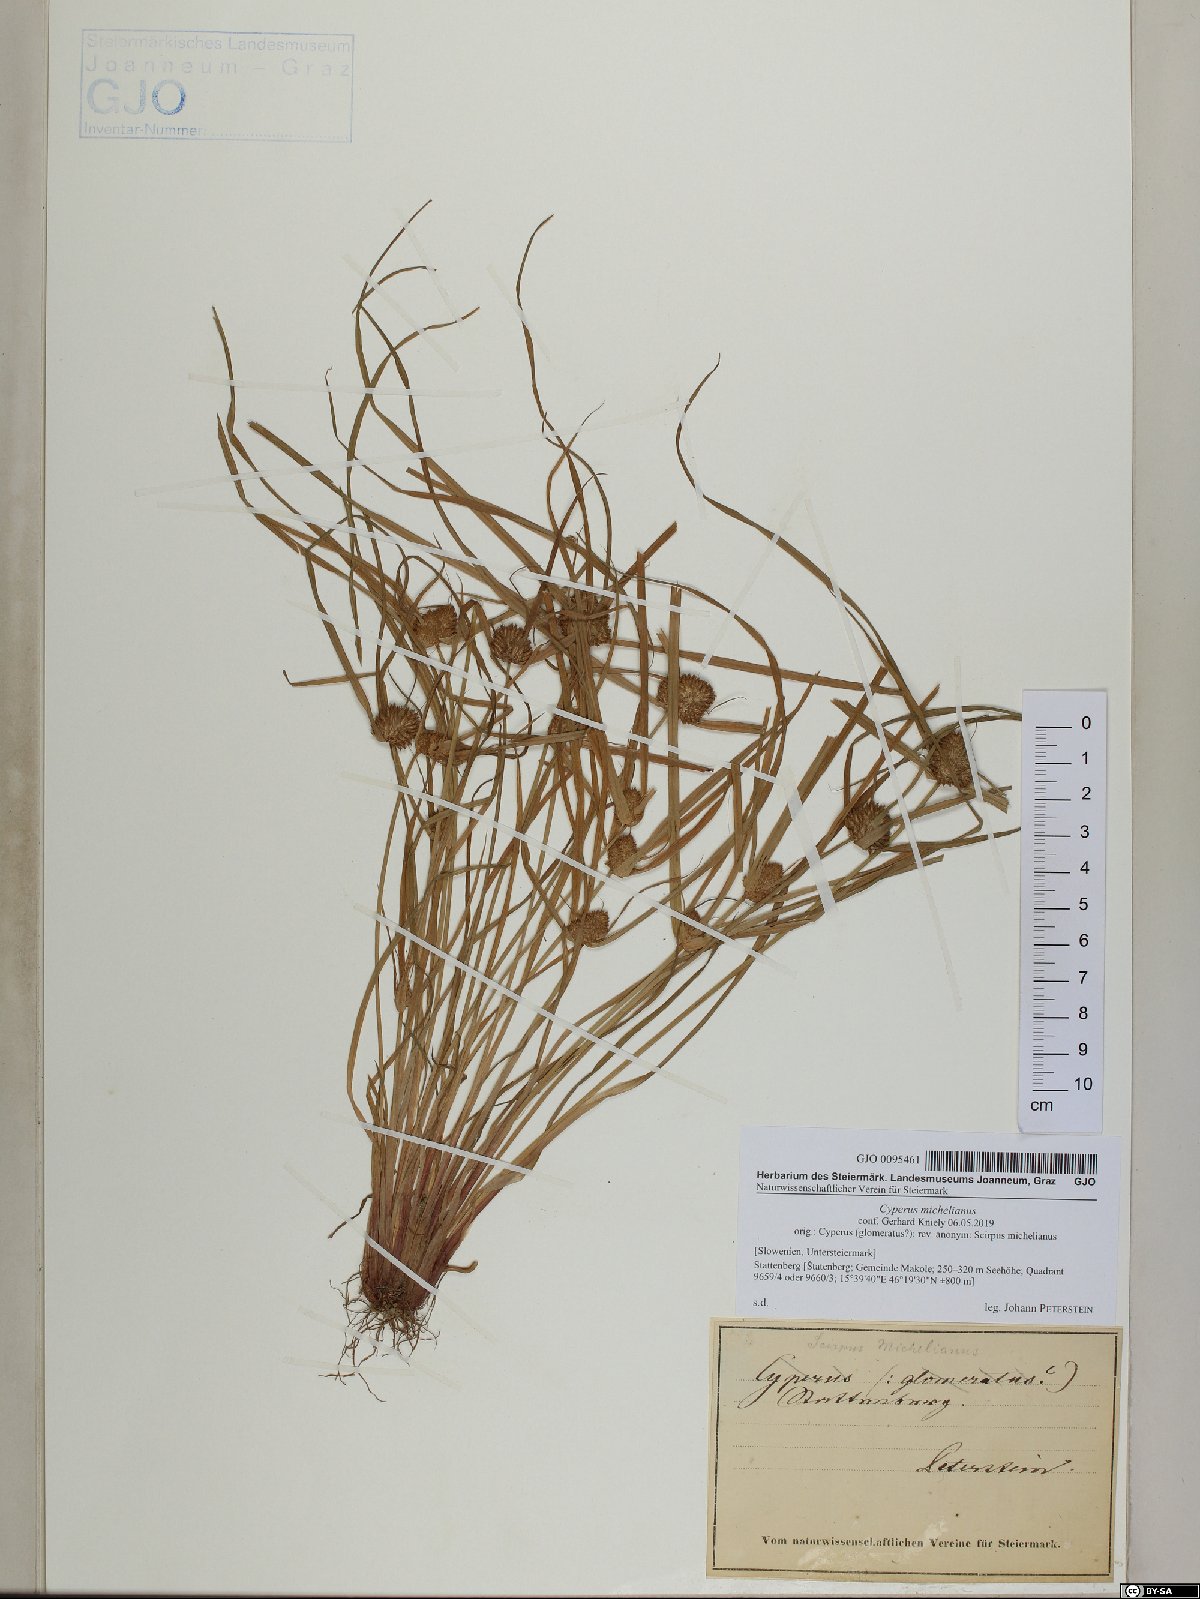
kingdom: Plantae
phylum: Tracheophyta
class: Liliopsida
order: Poales
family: Cyperaceae
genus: Cyperus
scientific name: Cyperus michelianus
